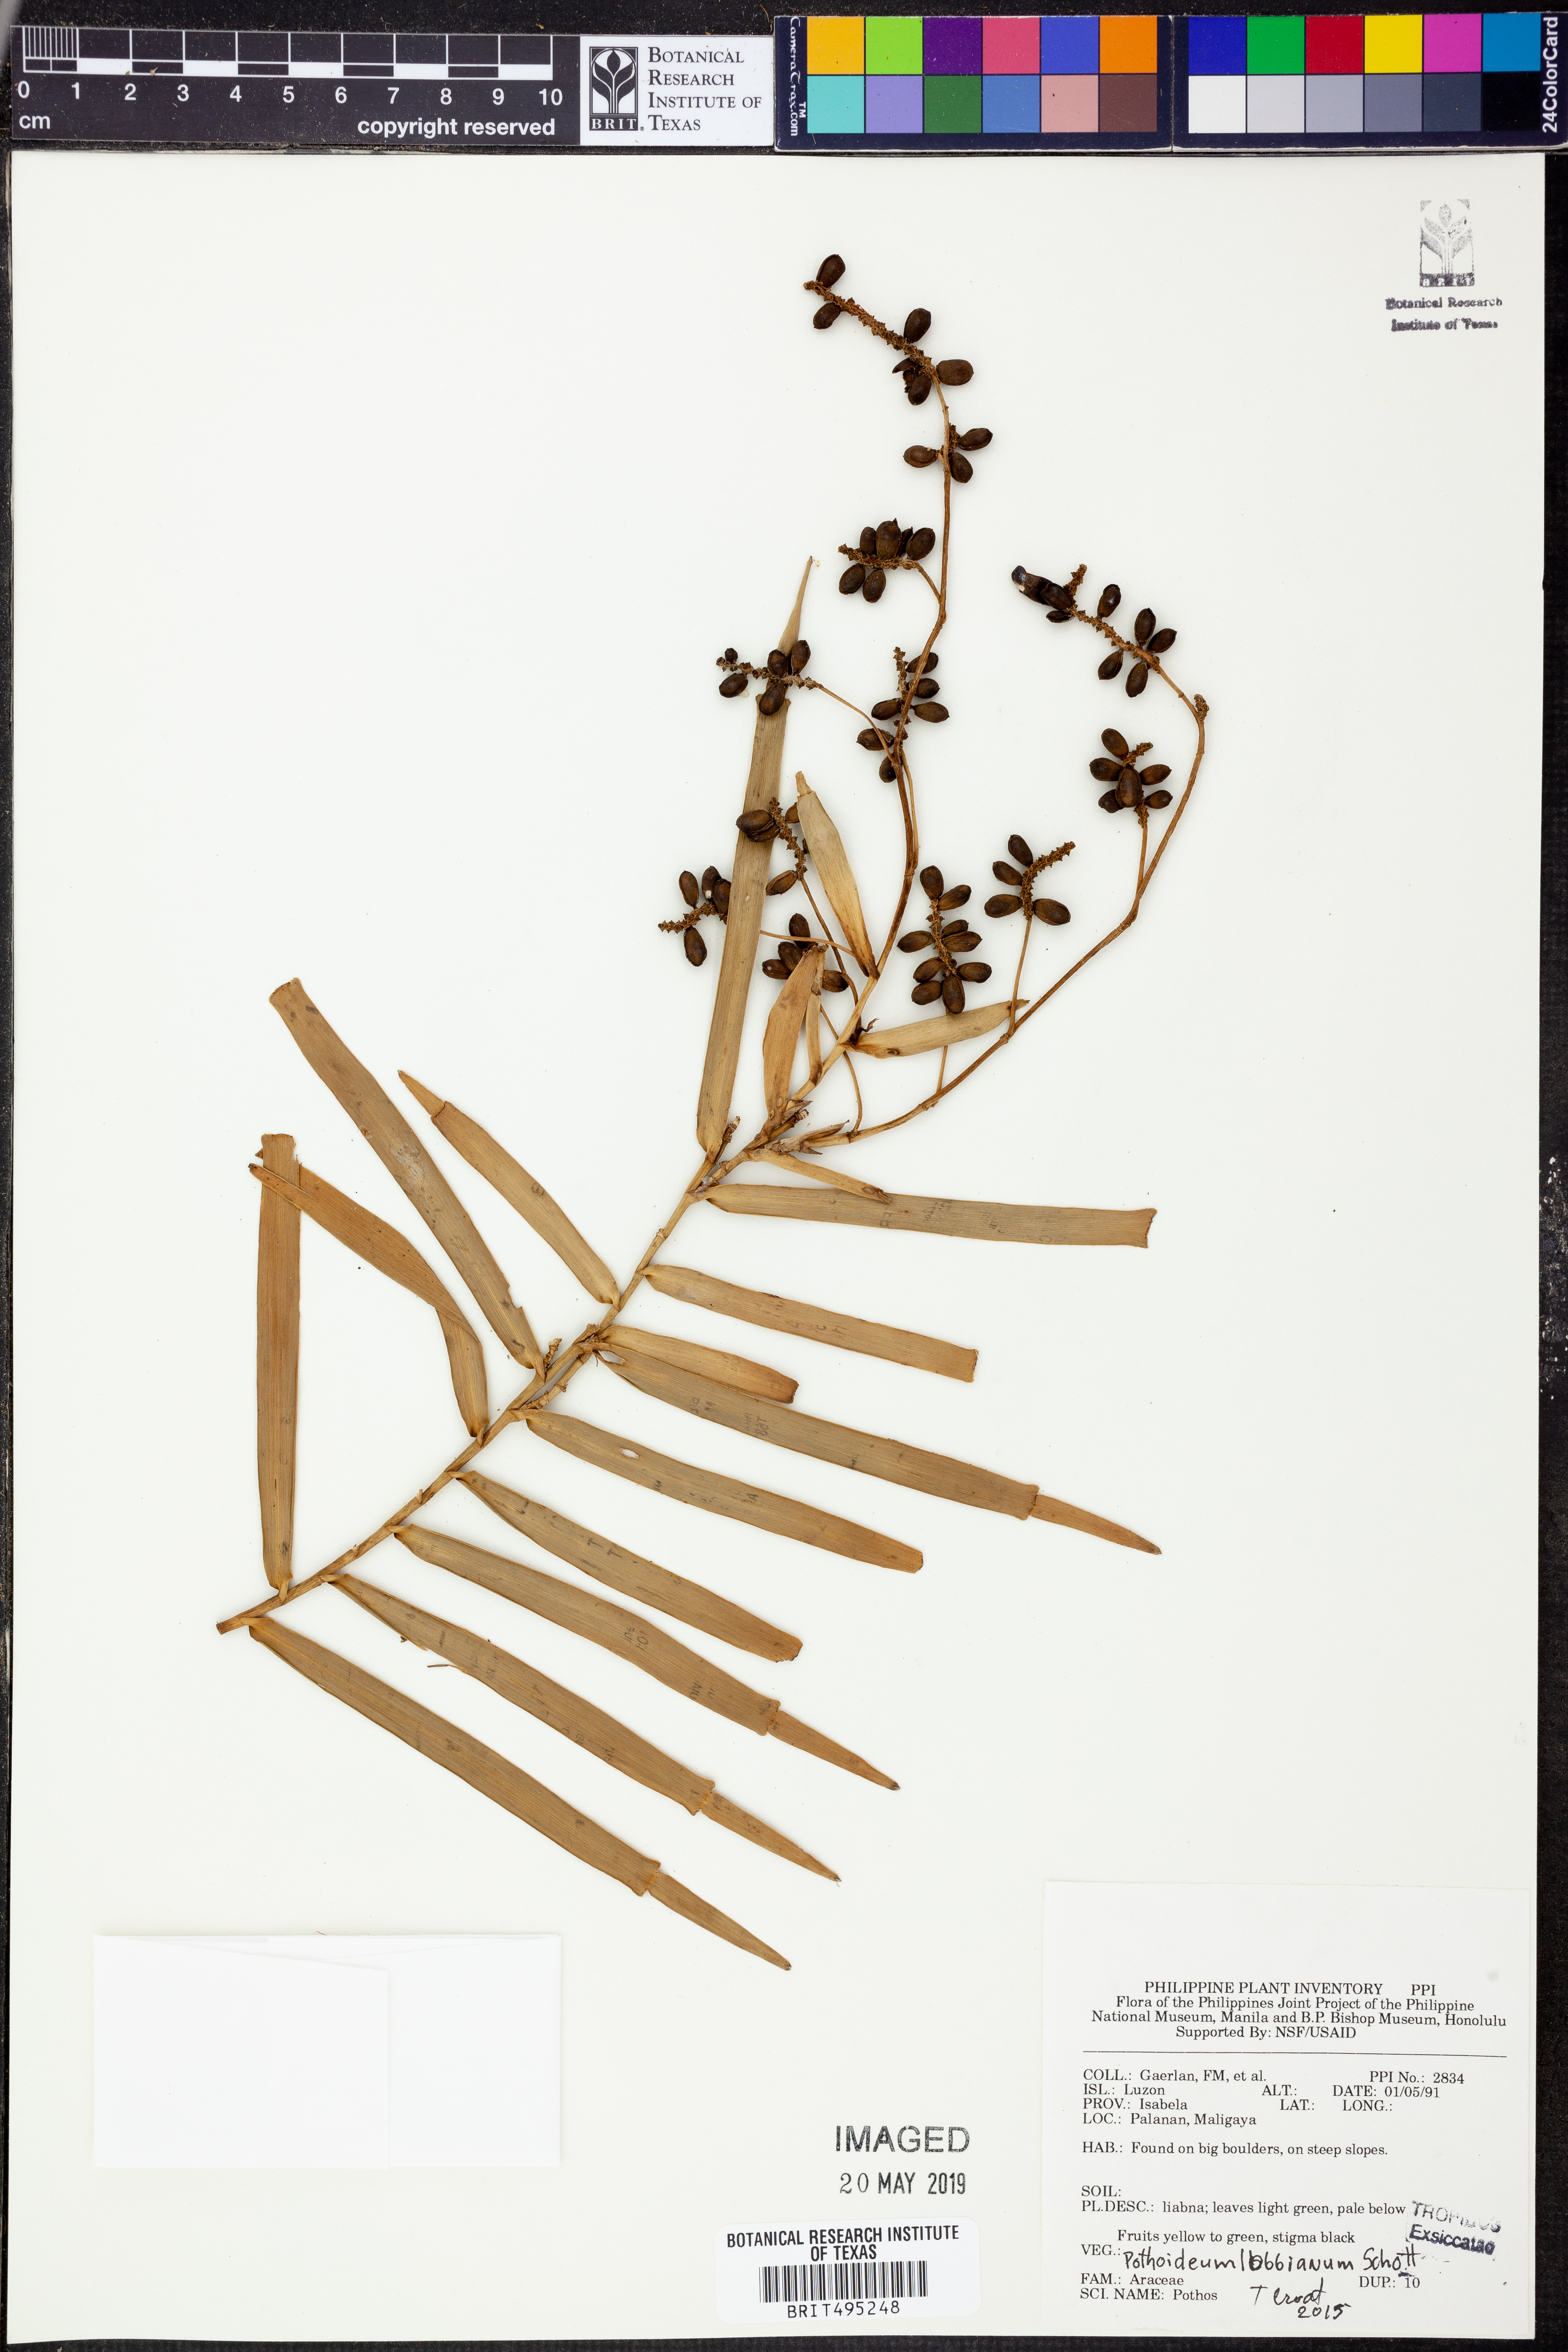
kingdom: Plantae
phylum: Tracheophyta
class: Liliopsida
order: Alismatales
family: Araceae
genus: Pothoidium
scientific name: Pothoidium lobbianum
